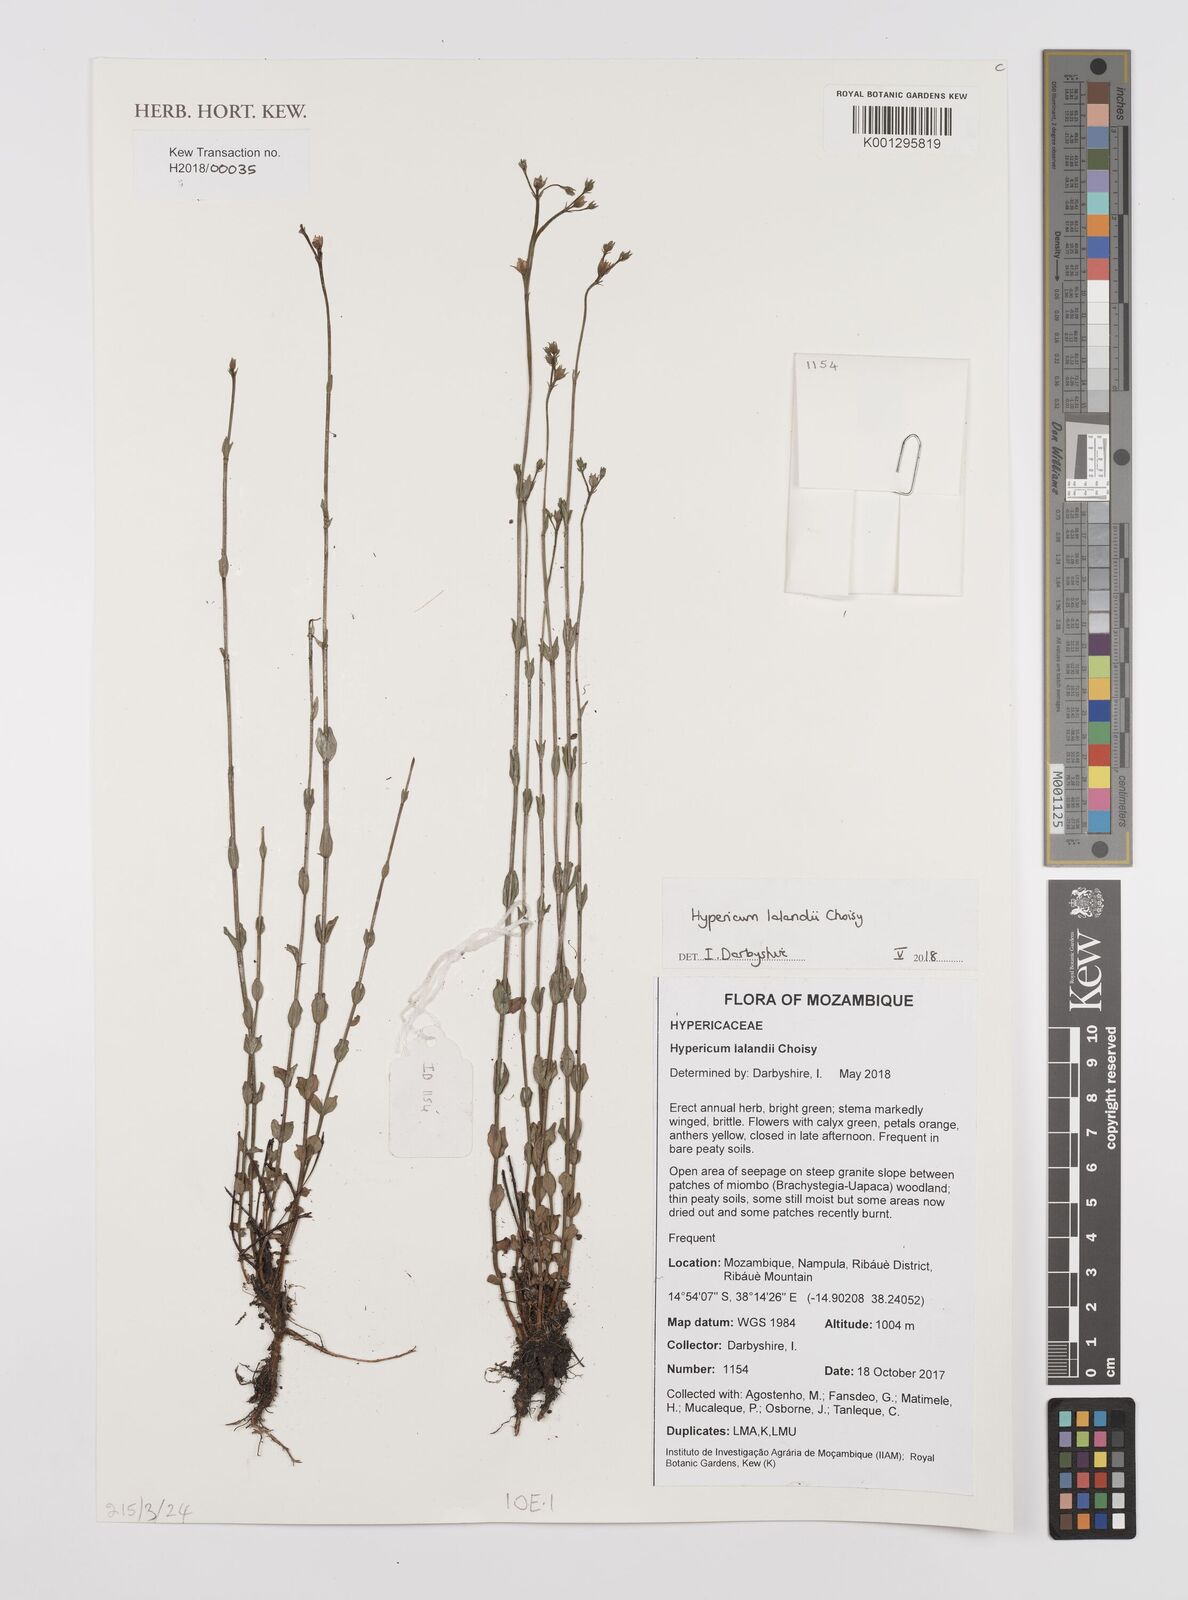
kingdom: Plantae
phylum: Tracheophyta
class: Magnoliopsida
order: Malpighiales
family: Hypericaceae
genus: Hypericum
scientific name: Hypericum lalandii
